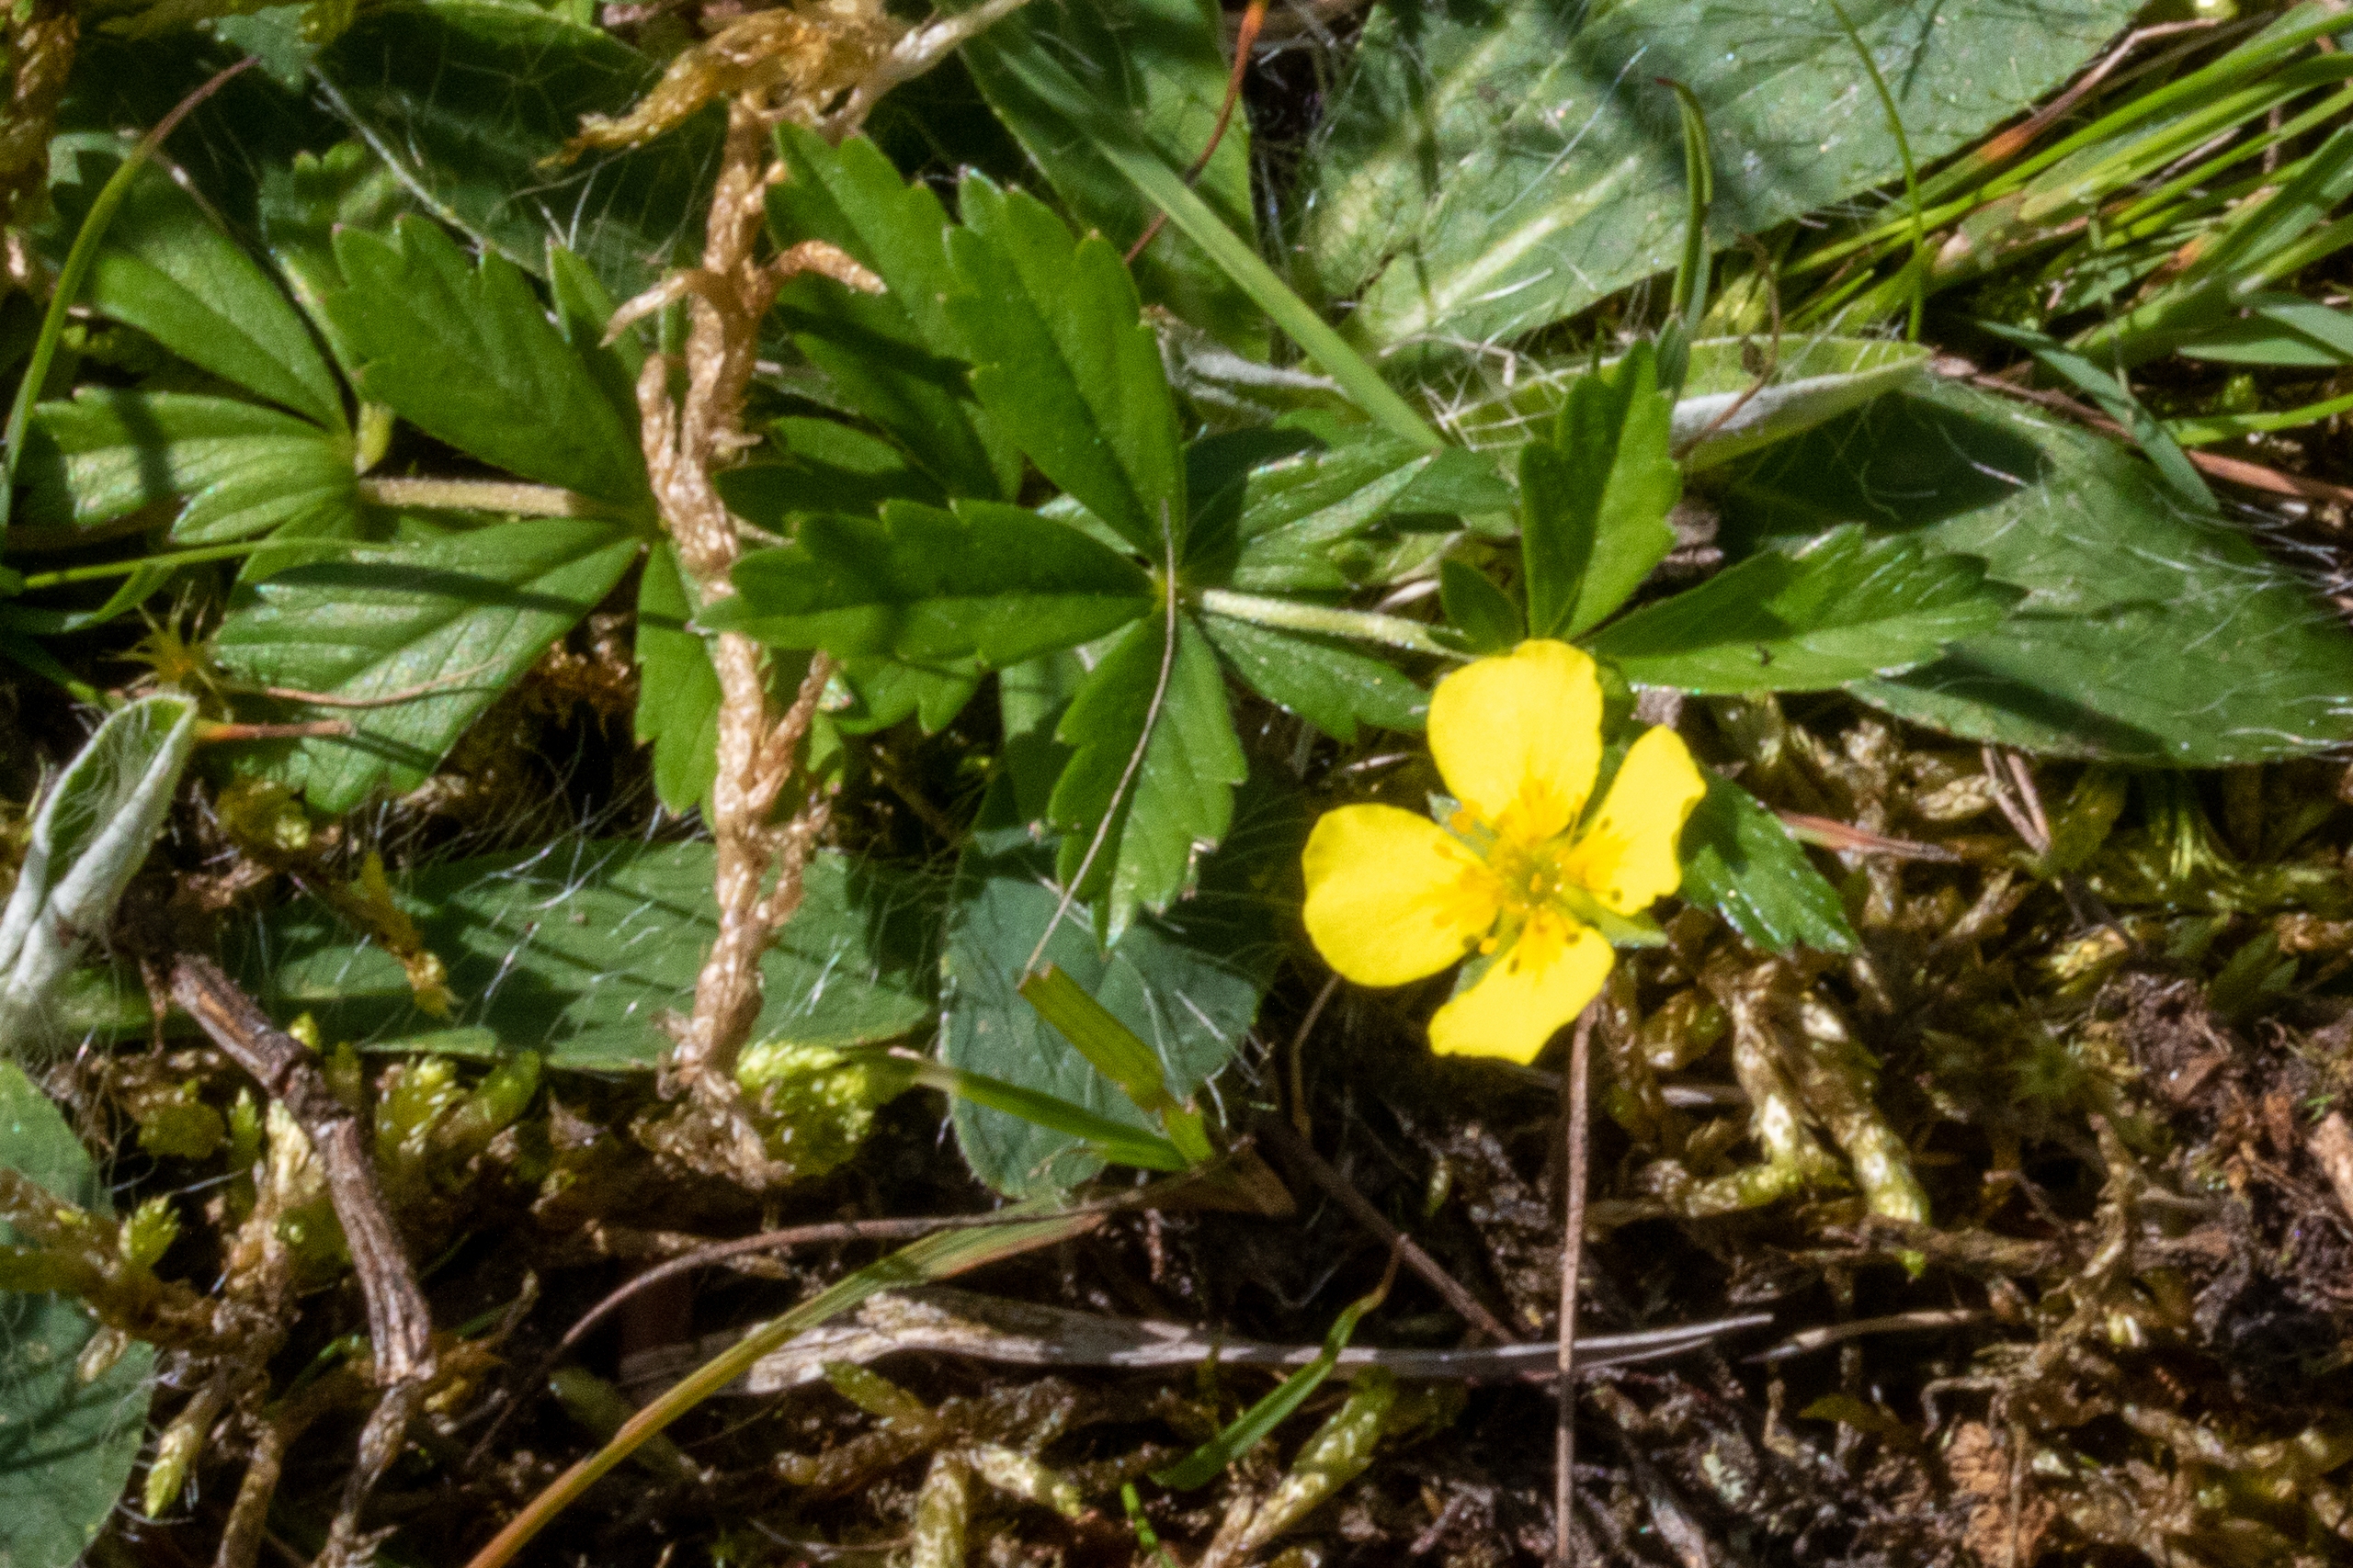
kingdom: Plantae
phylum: Tracheophyta
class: Magnoliopsida
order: Rosales
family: Rosaceae
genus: Potentilla
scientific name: Potentilla erecta
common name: Tormentil
